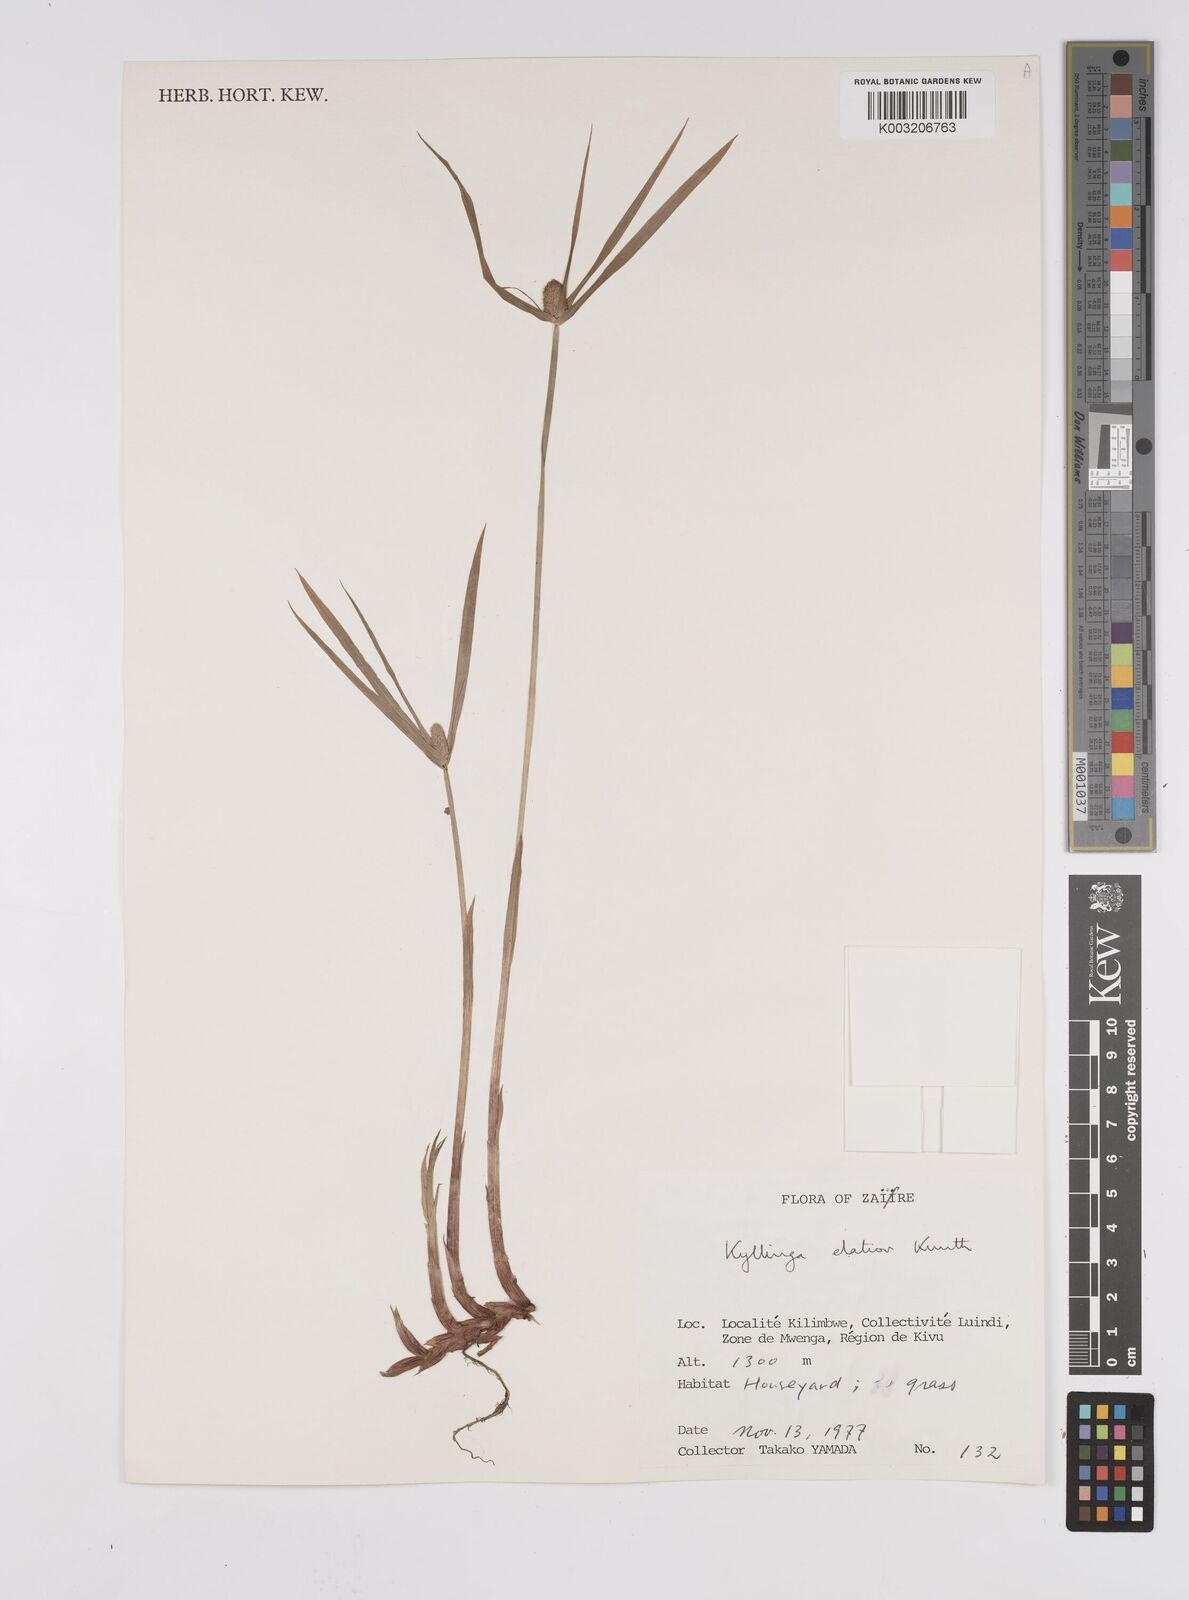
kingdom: Plantae
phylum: Tracheophyta
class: Liliopsida
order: Poales
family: Cyperaceae
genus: Cyperus
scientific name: Cyperus
